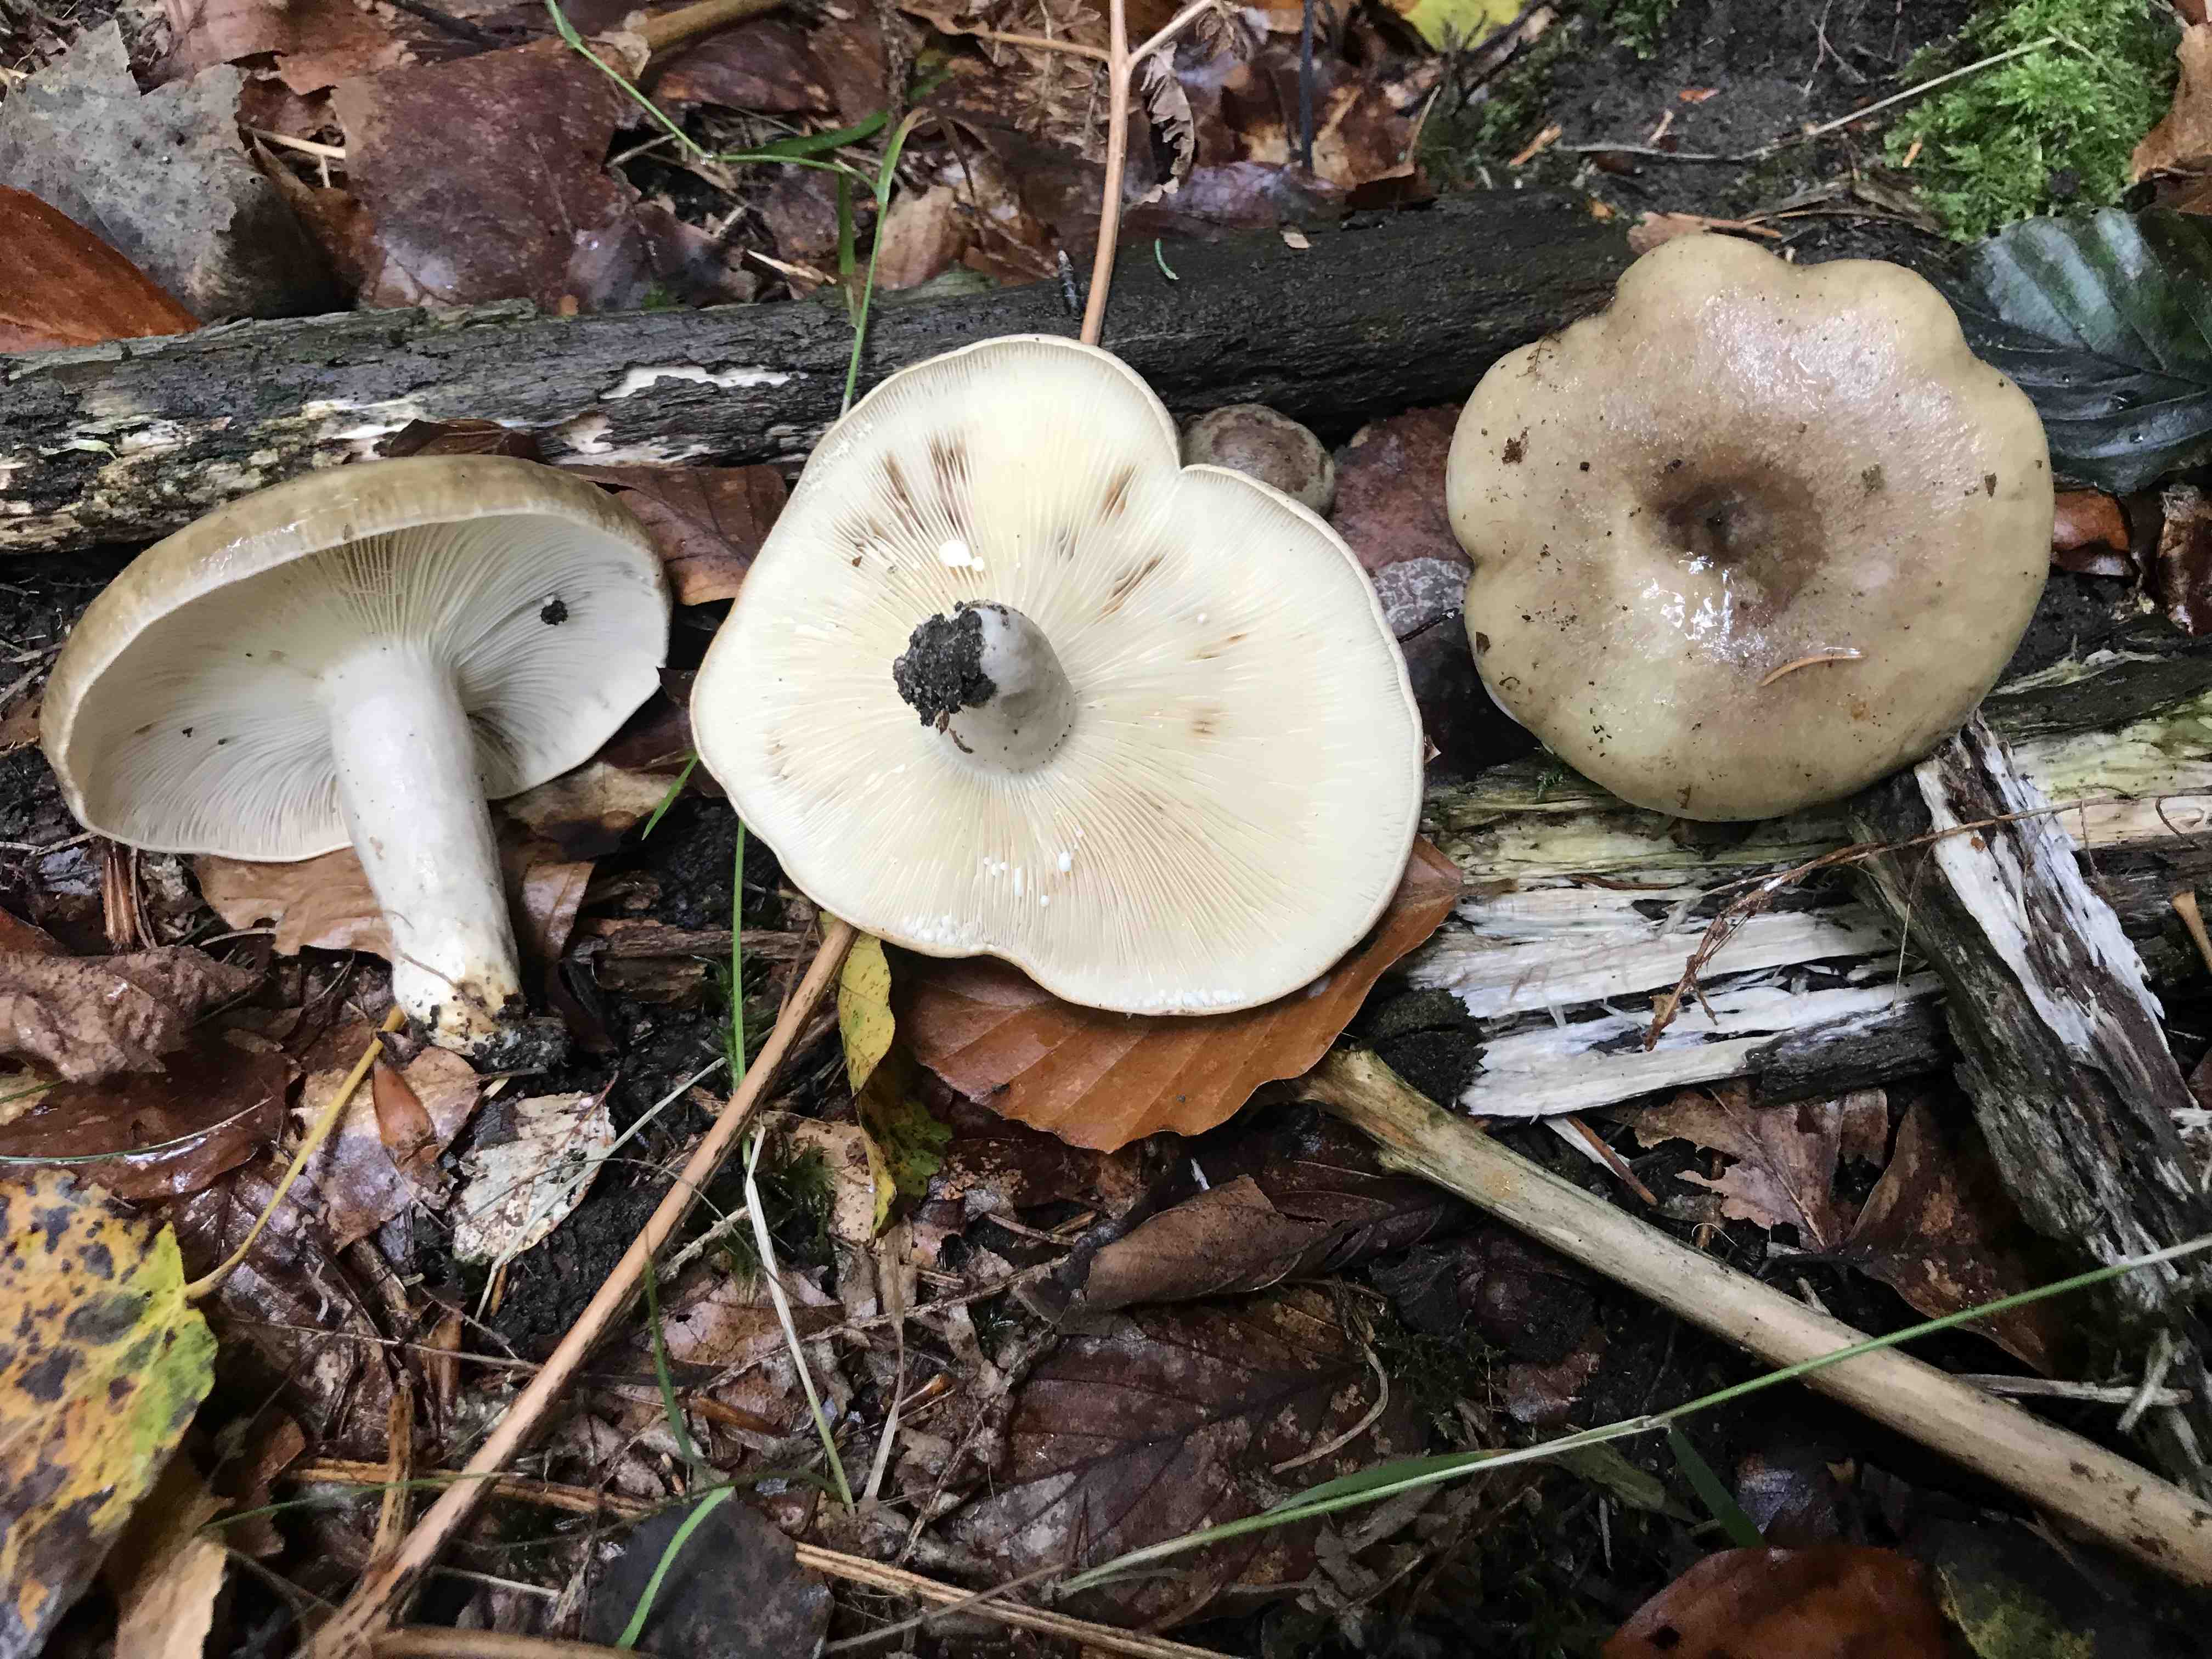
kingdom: Fungi
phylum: Basidiomycota
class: Agaricomycetes
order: Russulales
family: Russulaceae
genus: Lactarius
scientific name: Lactarius fluens
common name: lysrandet mælkehat
